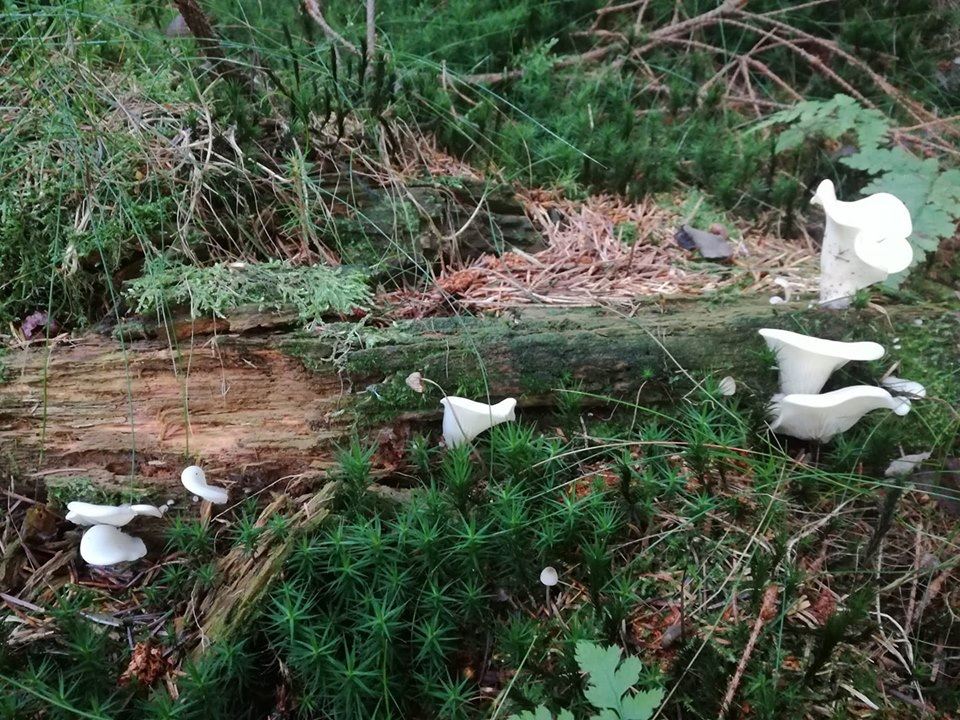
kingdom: Fungi
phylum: Basidiomycota
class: Agaricomycetes
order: Agaricales
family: Marasmiaceae
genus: Pleurocybella
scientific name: Pleurocybella porrigens
